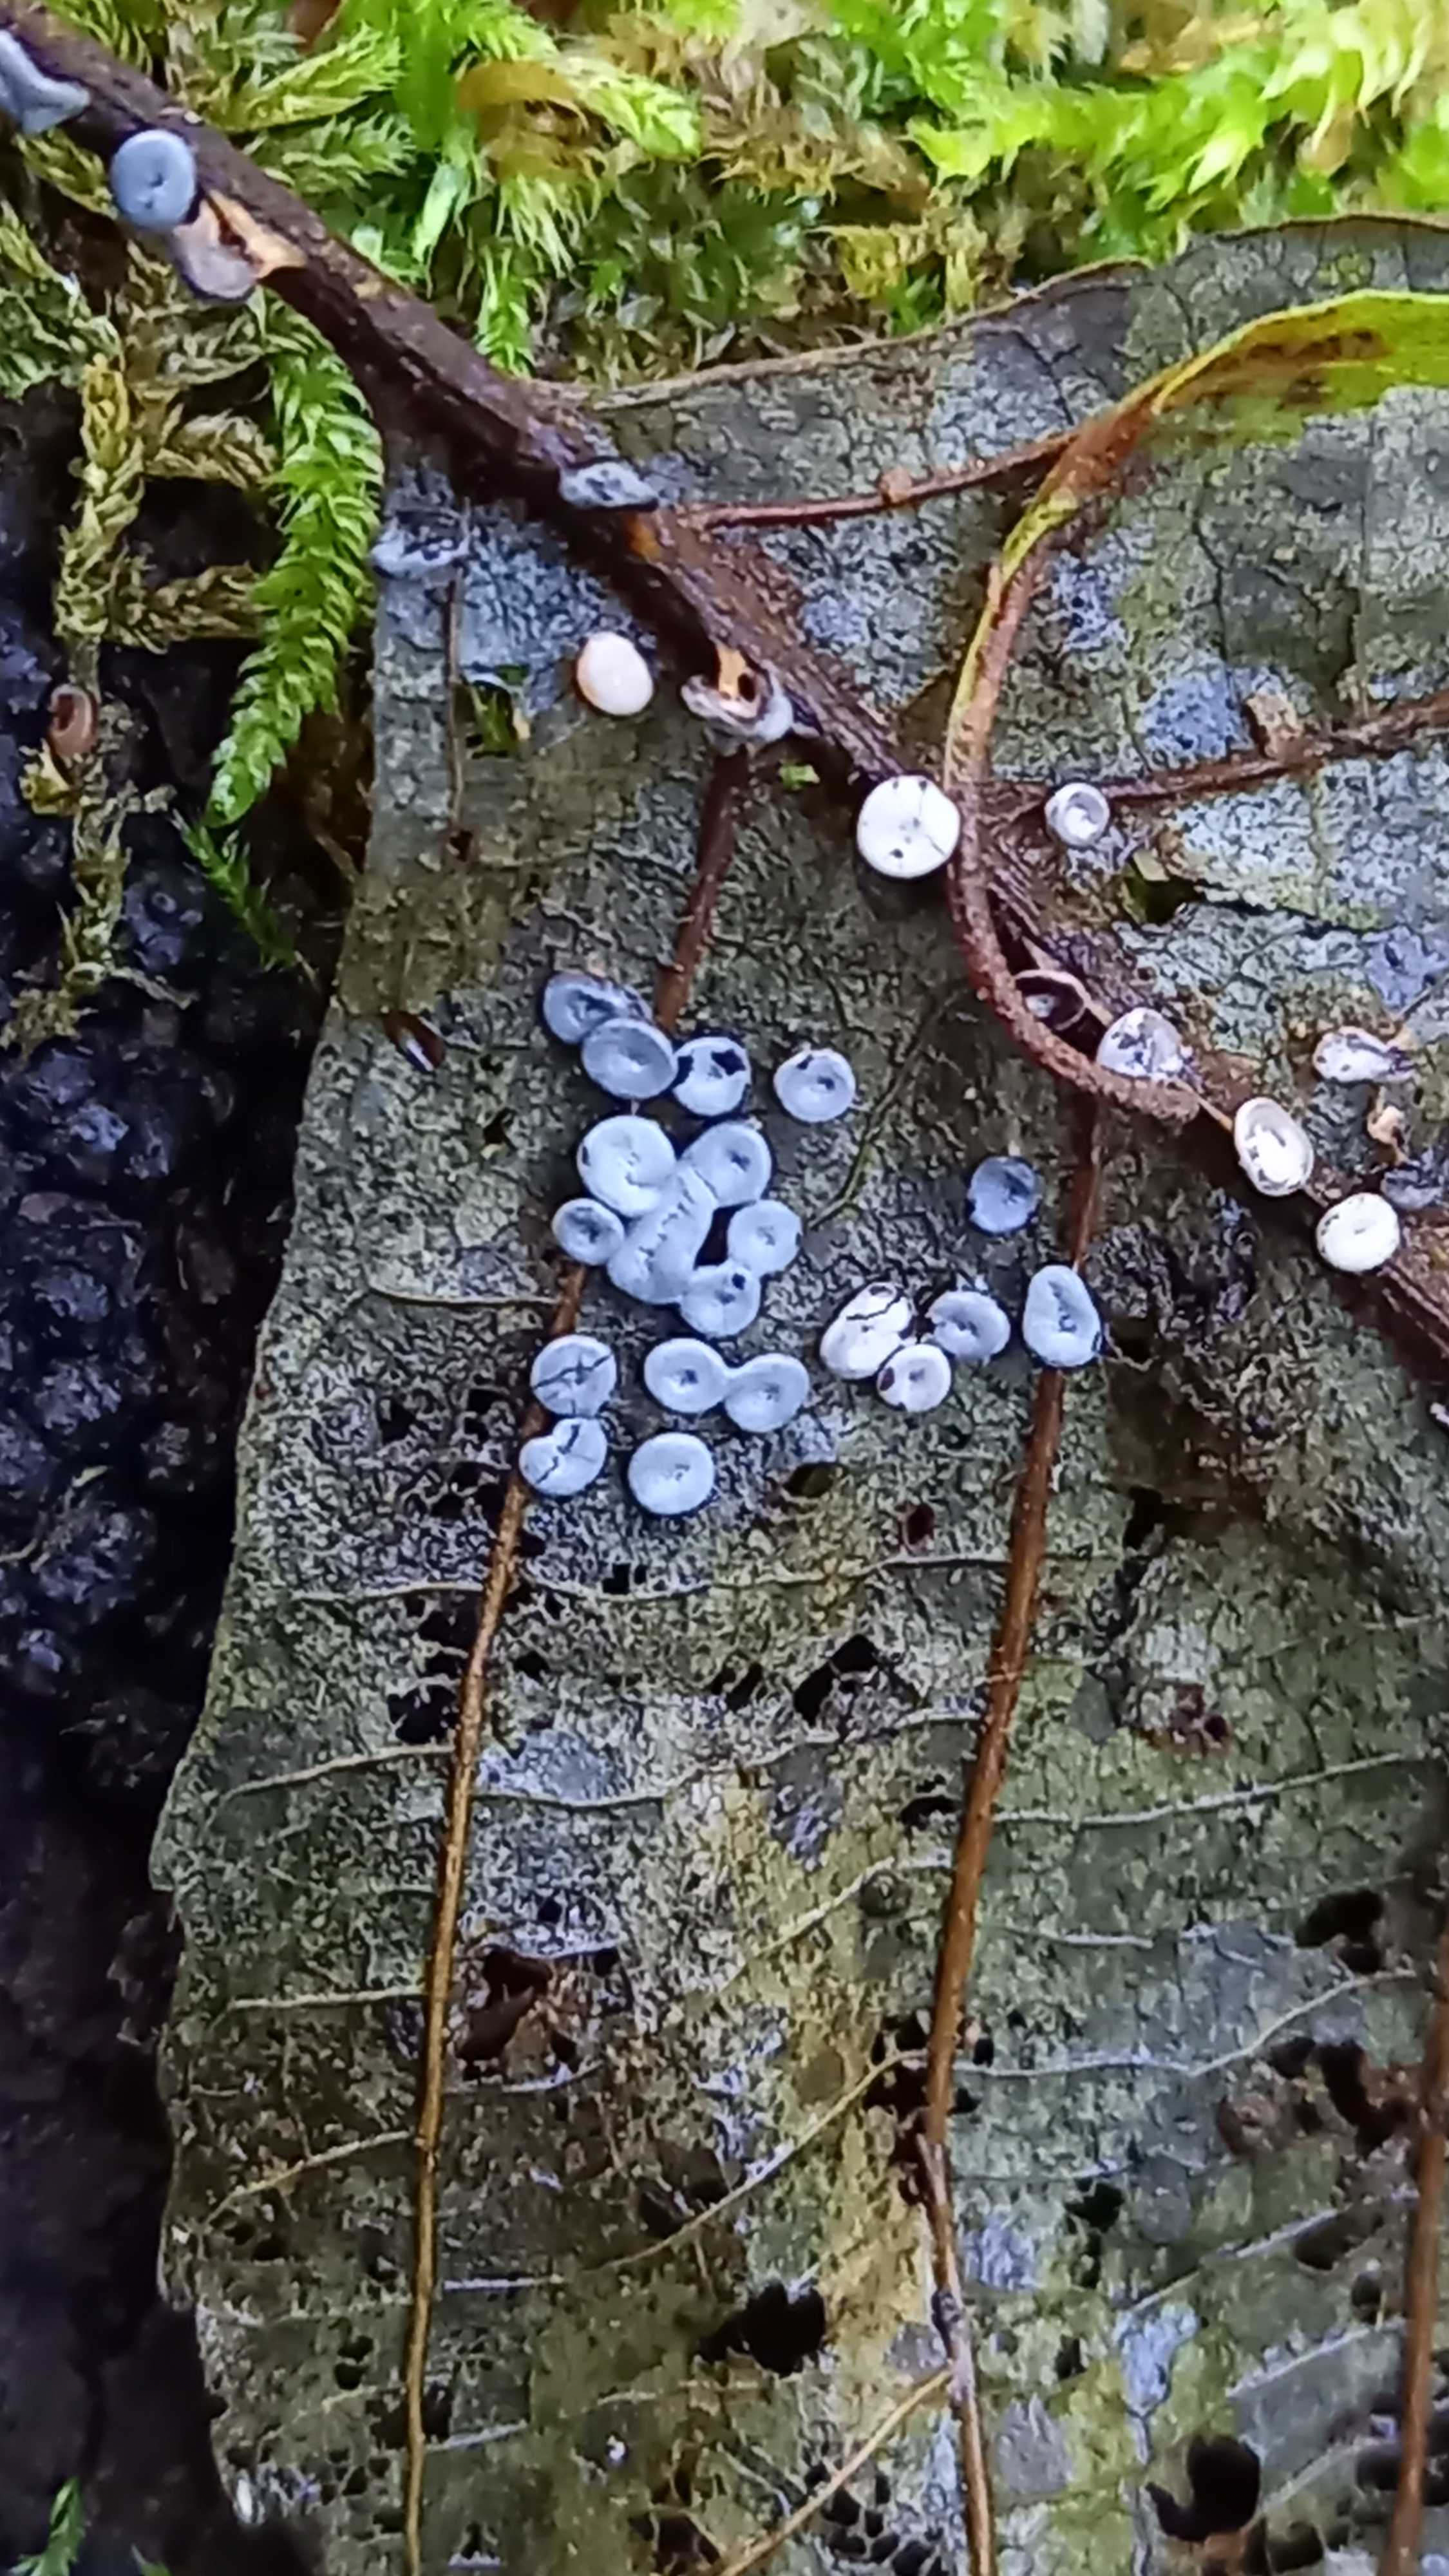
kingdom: Protozoa
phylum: Mycetozoa
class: Myxomycetes
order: Physarales
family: Didymiaceae
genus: Diderma
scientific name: Diderma hemisphaericum
